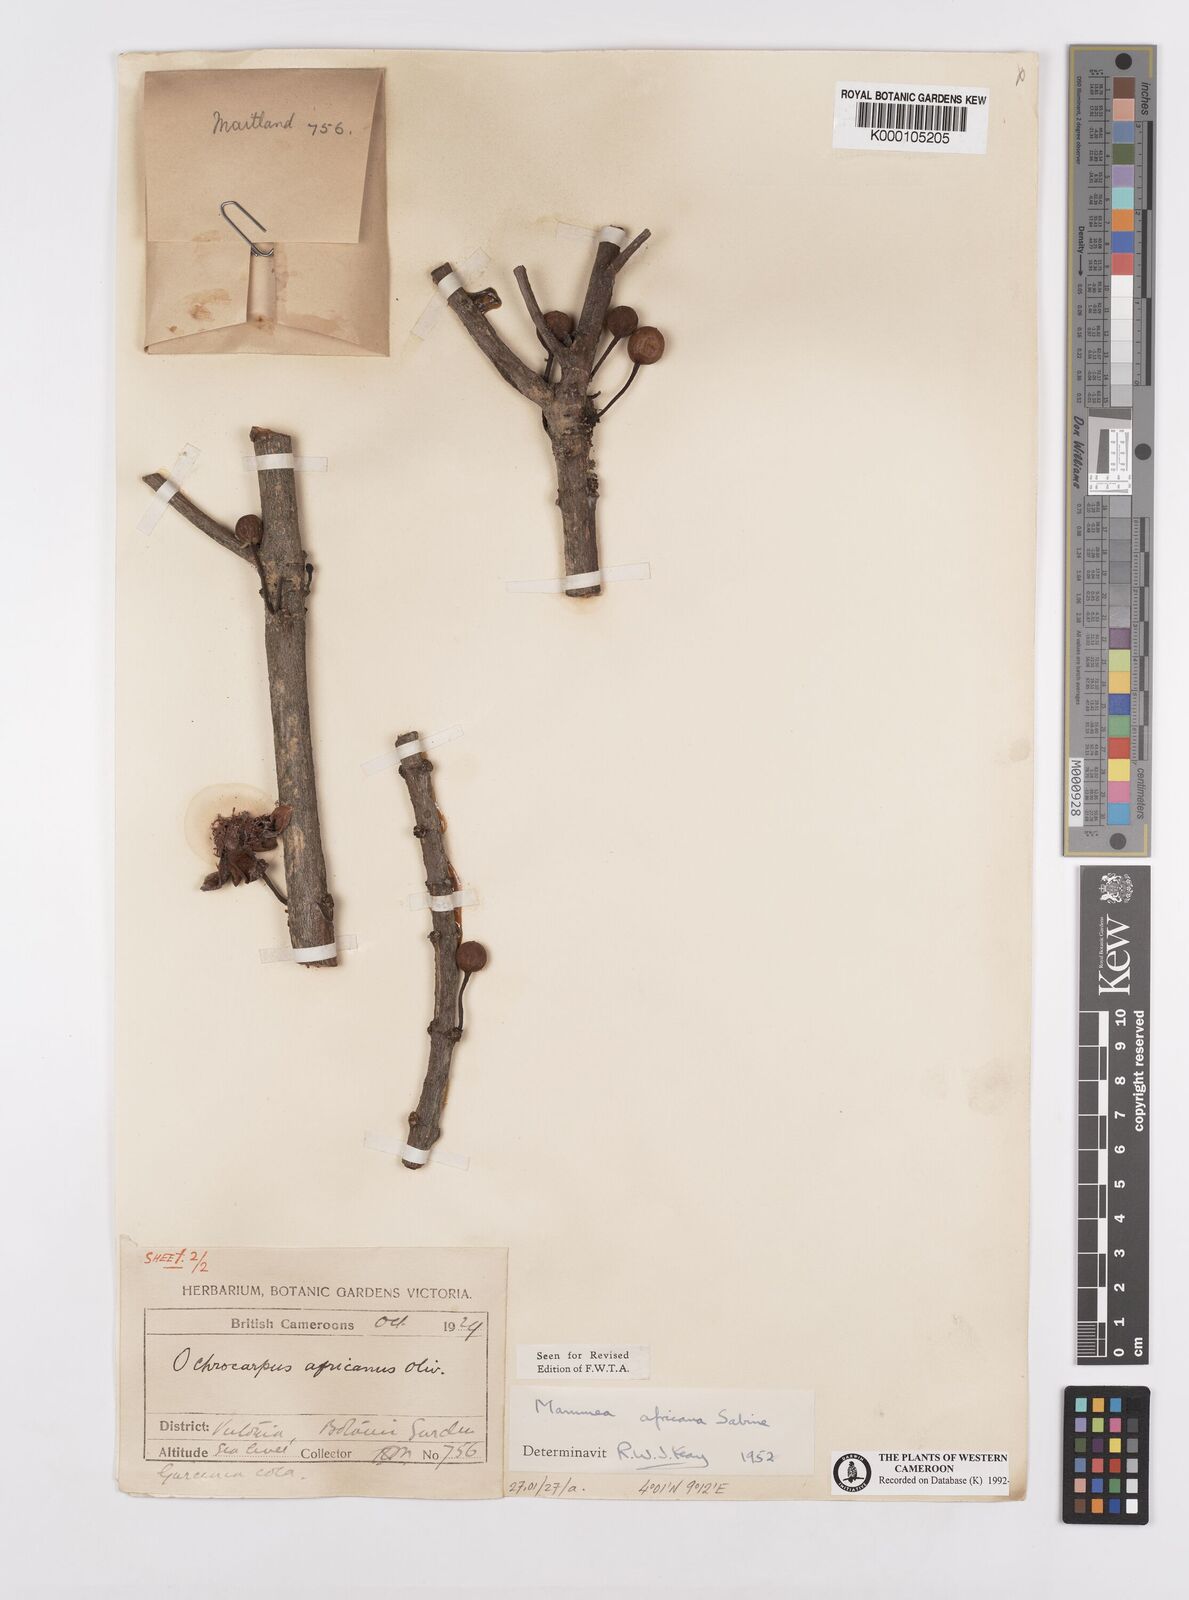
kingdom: Plantae
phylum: Tracheophyta
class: Magnoliopsida
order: Malpighiales
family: Calophyllaceae
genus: Mammea
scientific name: Mammea africana
